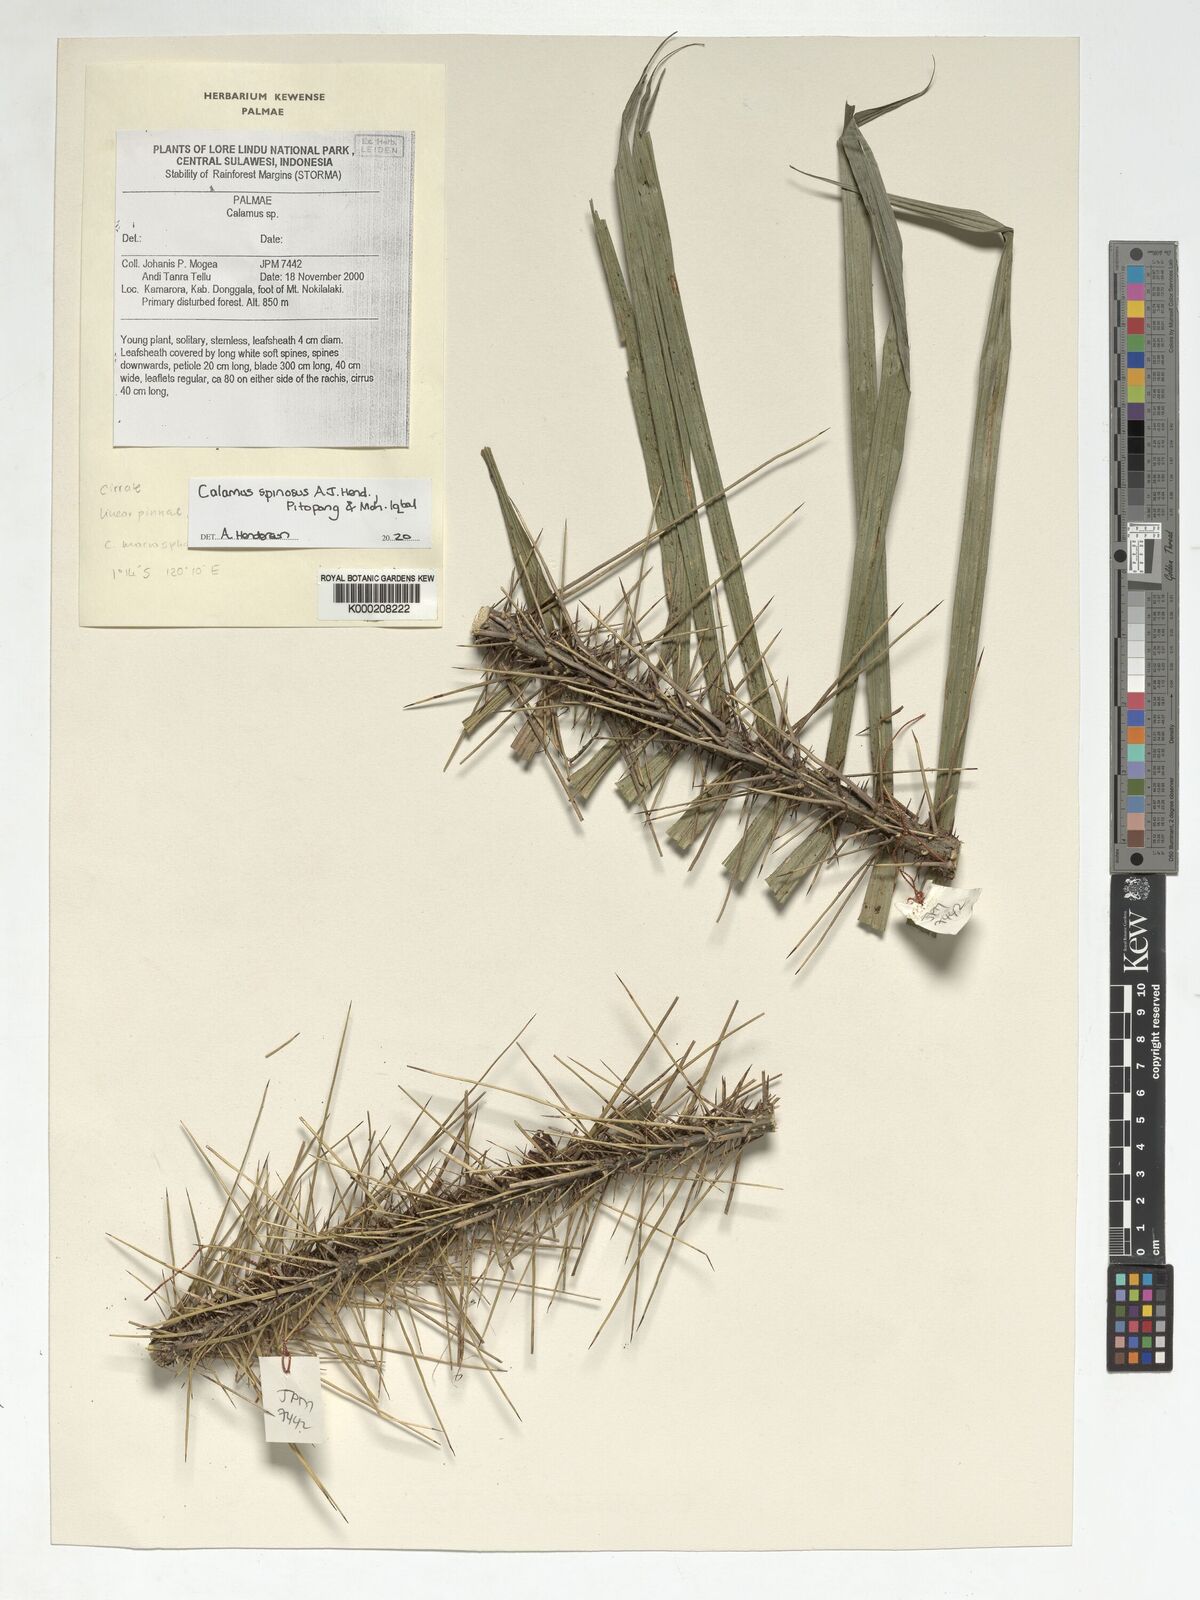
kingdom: Plantae
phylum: Tracheophyta
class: Liliopsida
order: Arecales
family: Arecaceae
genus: Calamus
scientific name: Calamus
